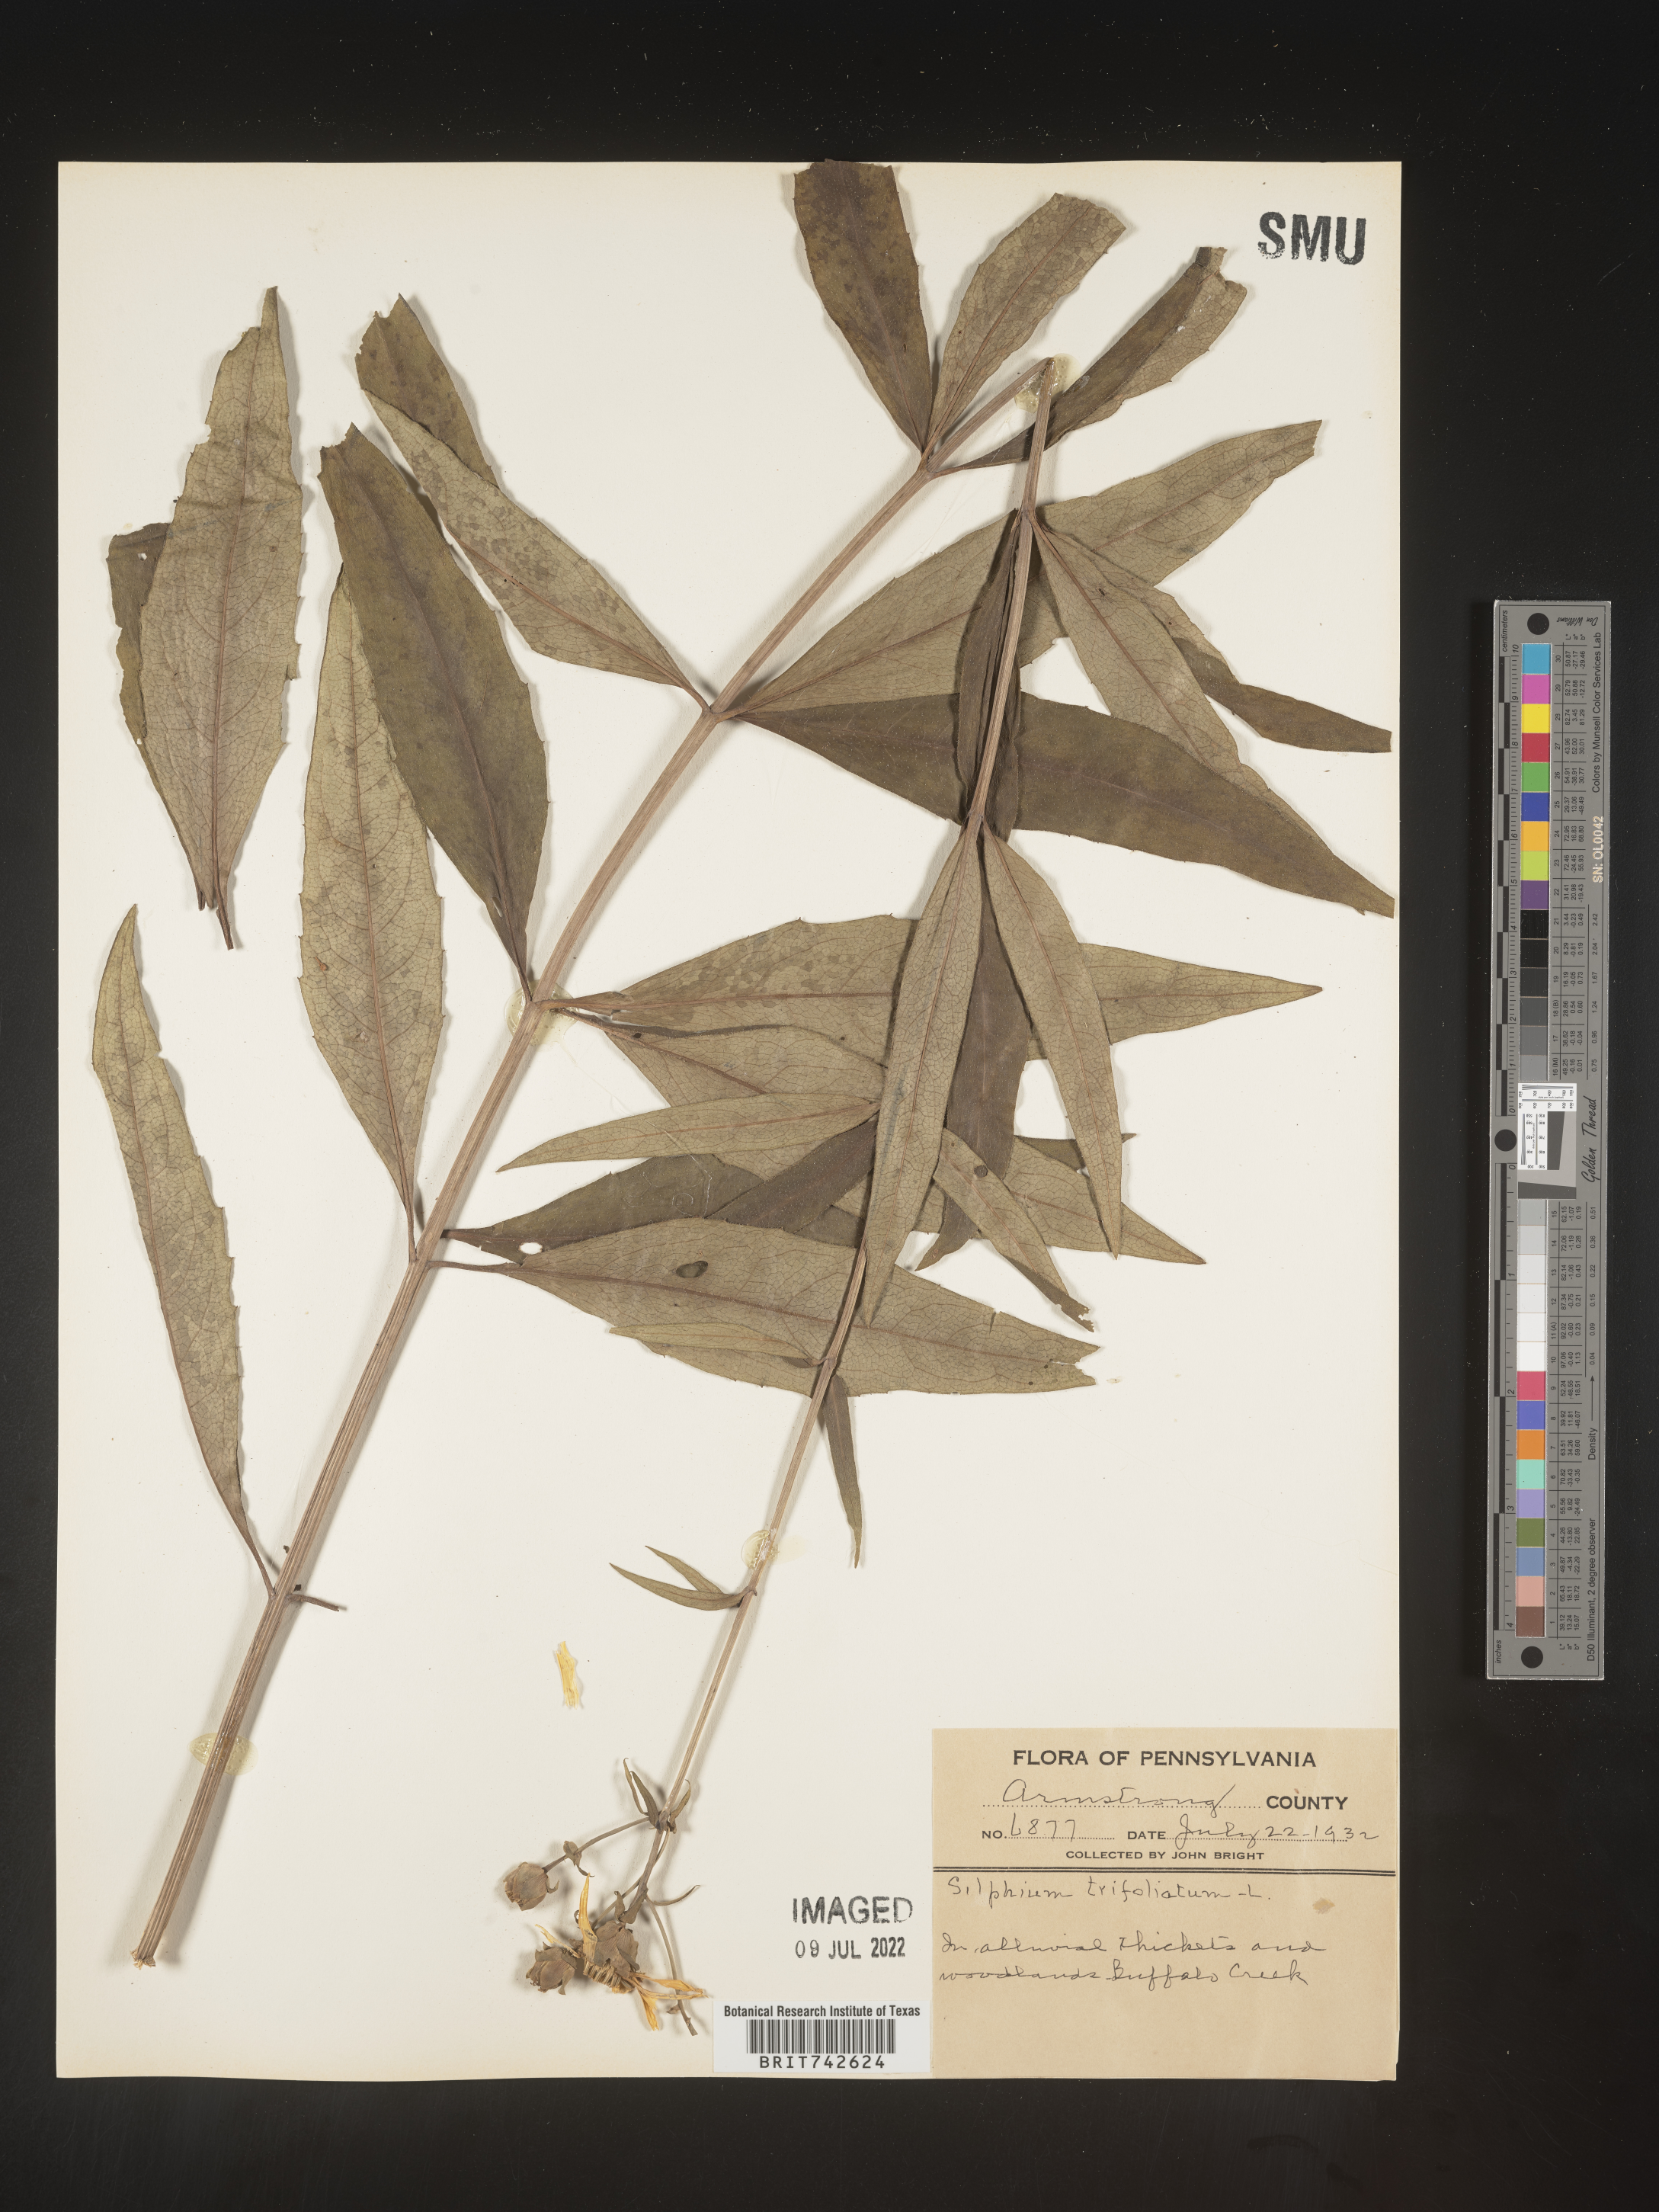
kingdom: Plantae
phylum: Tracheophyta
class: Magnoliopsida
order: Asterales
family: Asteraceae
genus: Silphium
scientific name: Silphium asteriscus
